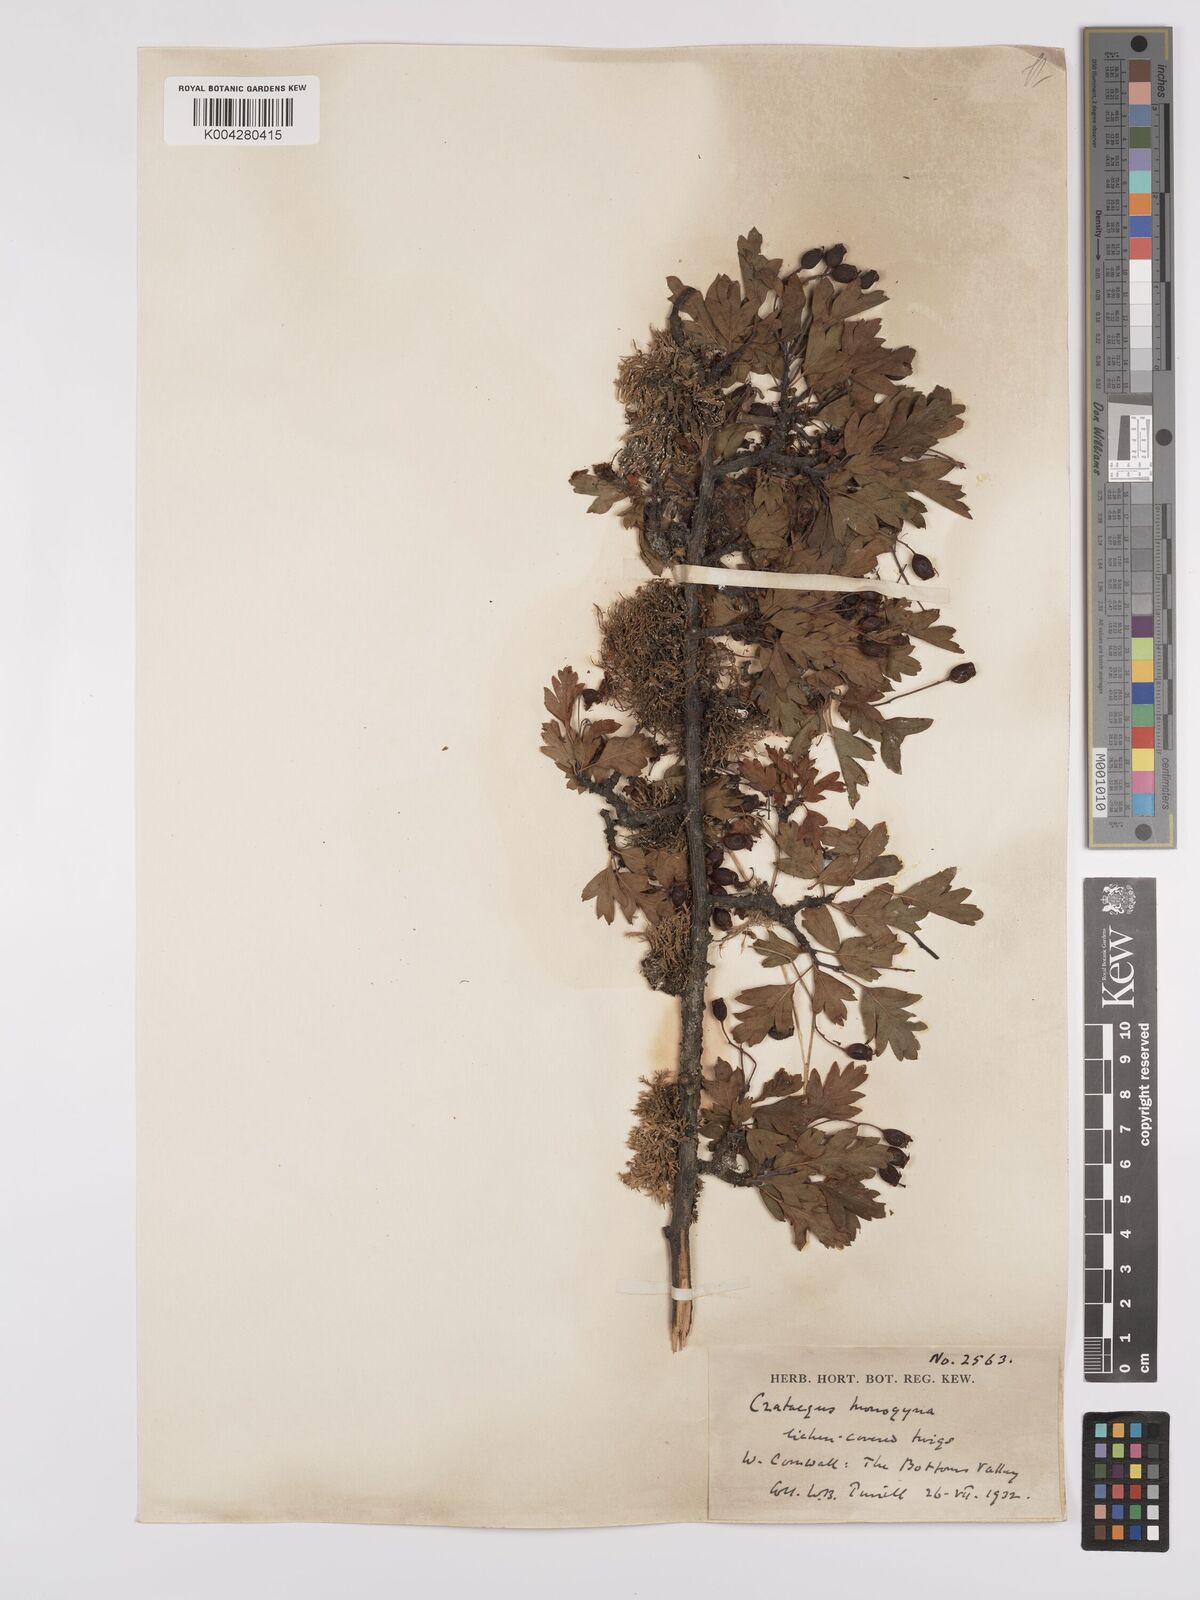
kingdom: Plantae
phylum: Tracheophyta
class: Magnoliopsida
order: Rosales
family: Rosaceae
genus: Crataegus
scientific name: Crataegus monogyna
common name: Hawthorn
